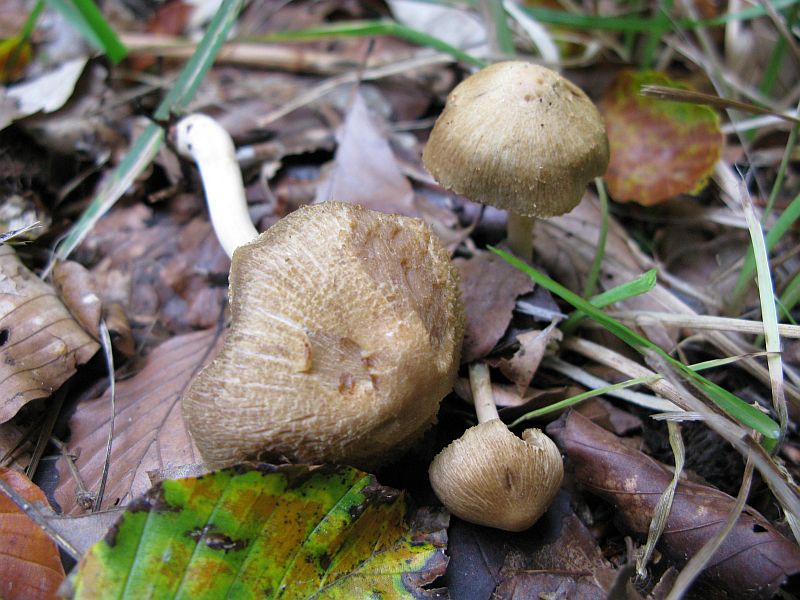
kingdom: Fungi
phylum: Basidiomycota
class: Agaricomycetes
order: Agaricales
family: Inocybaceae
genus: Inocybe
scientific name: Inocybe hirtella
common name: mandel-trævlhat
